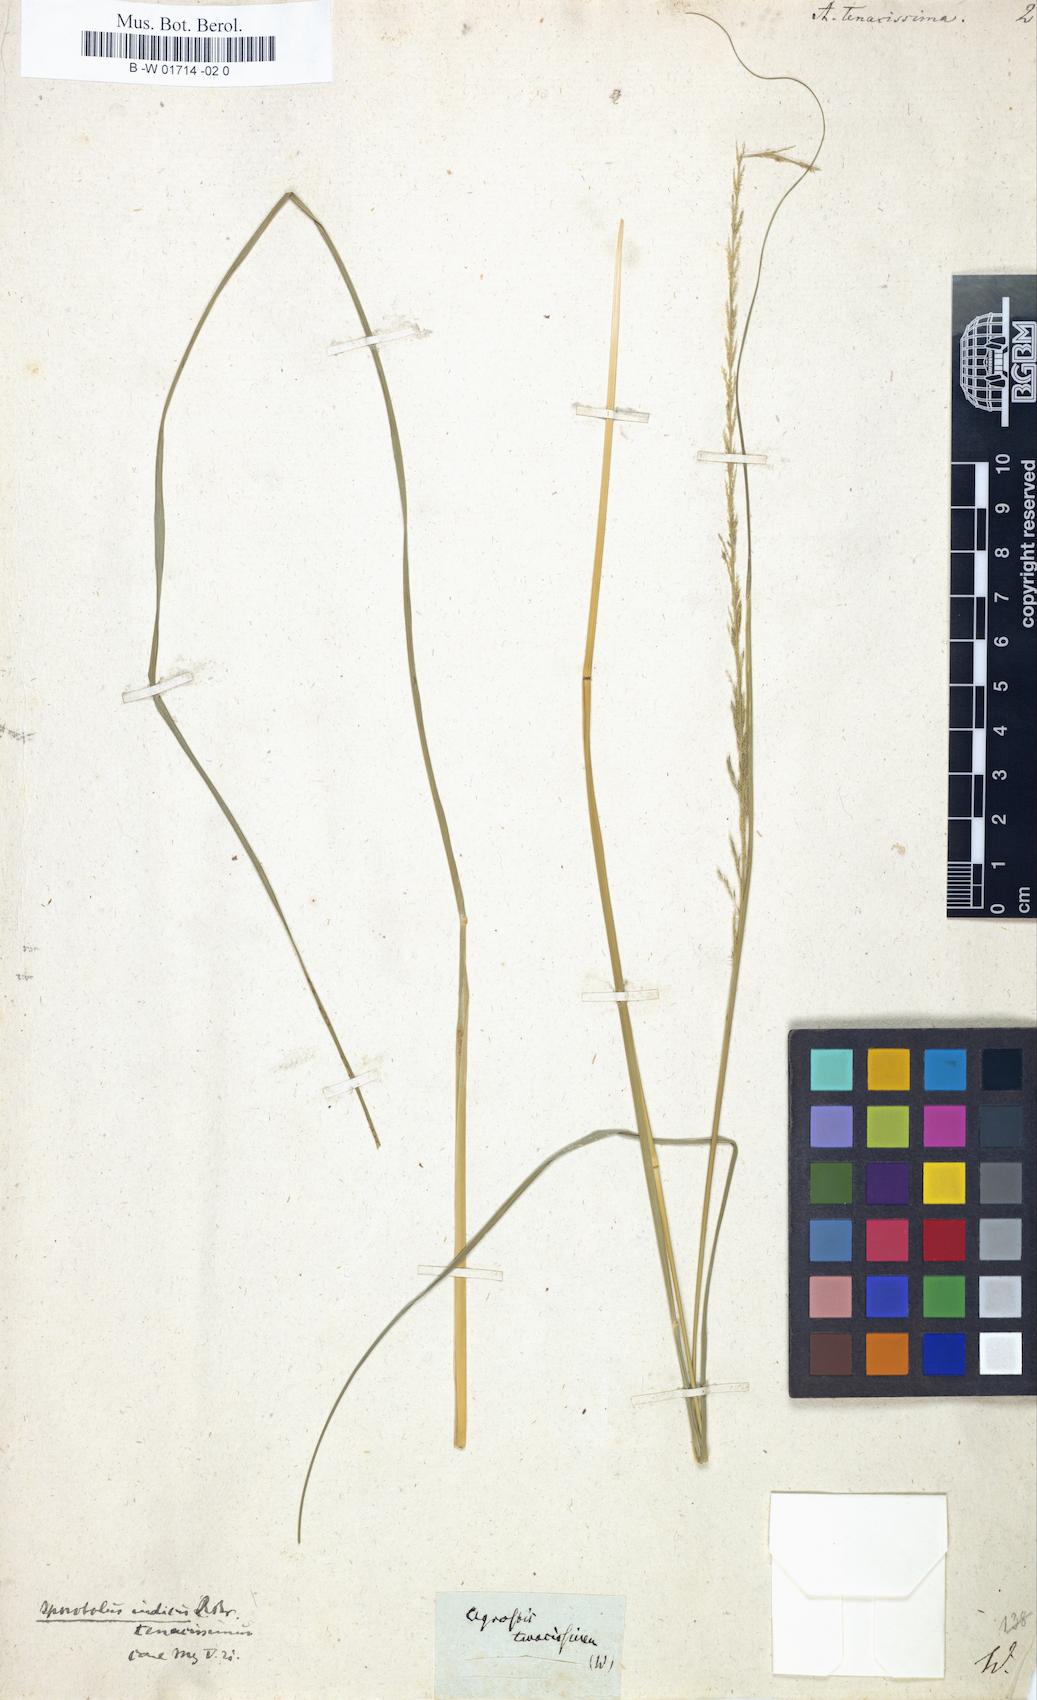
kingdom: Plantae
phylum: Tracheophyta
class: Liliopsida
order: Poales
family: Poaceae
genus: Sporobolus
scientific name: Sporobolus indicus
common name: Smut grass
